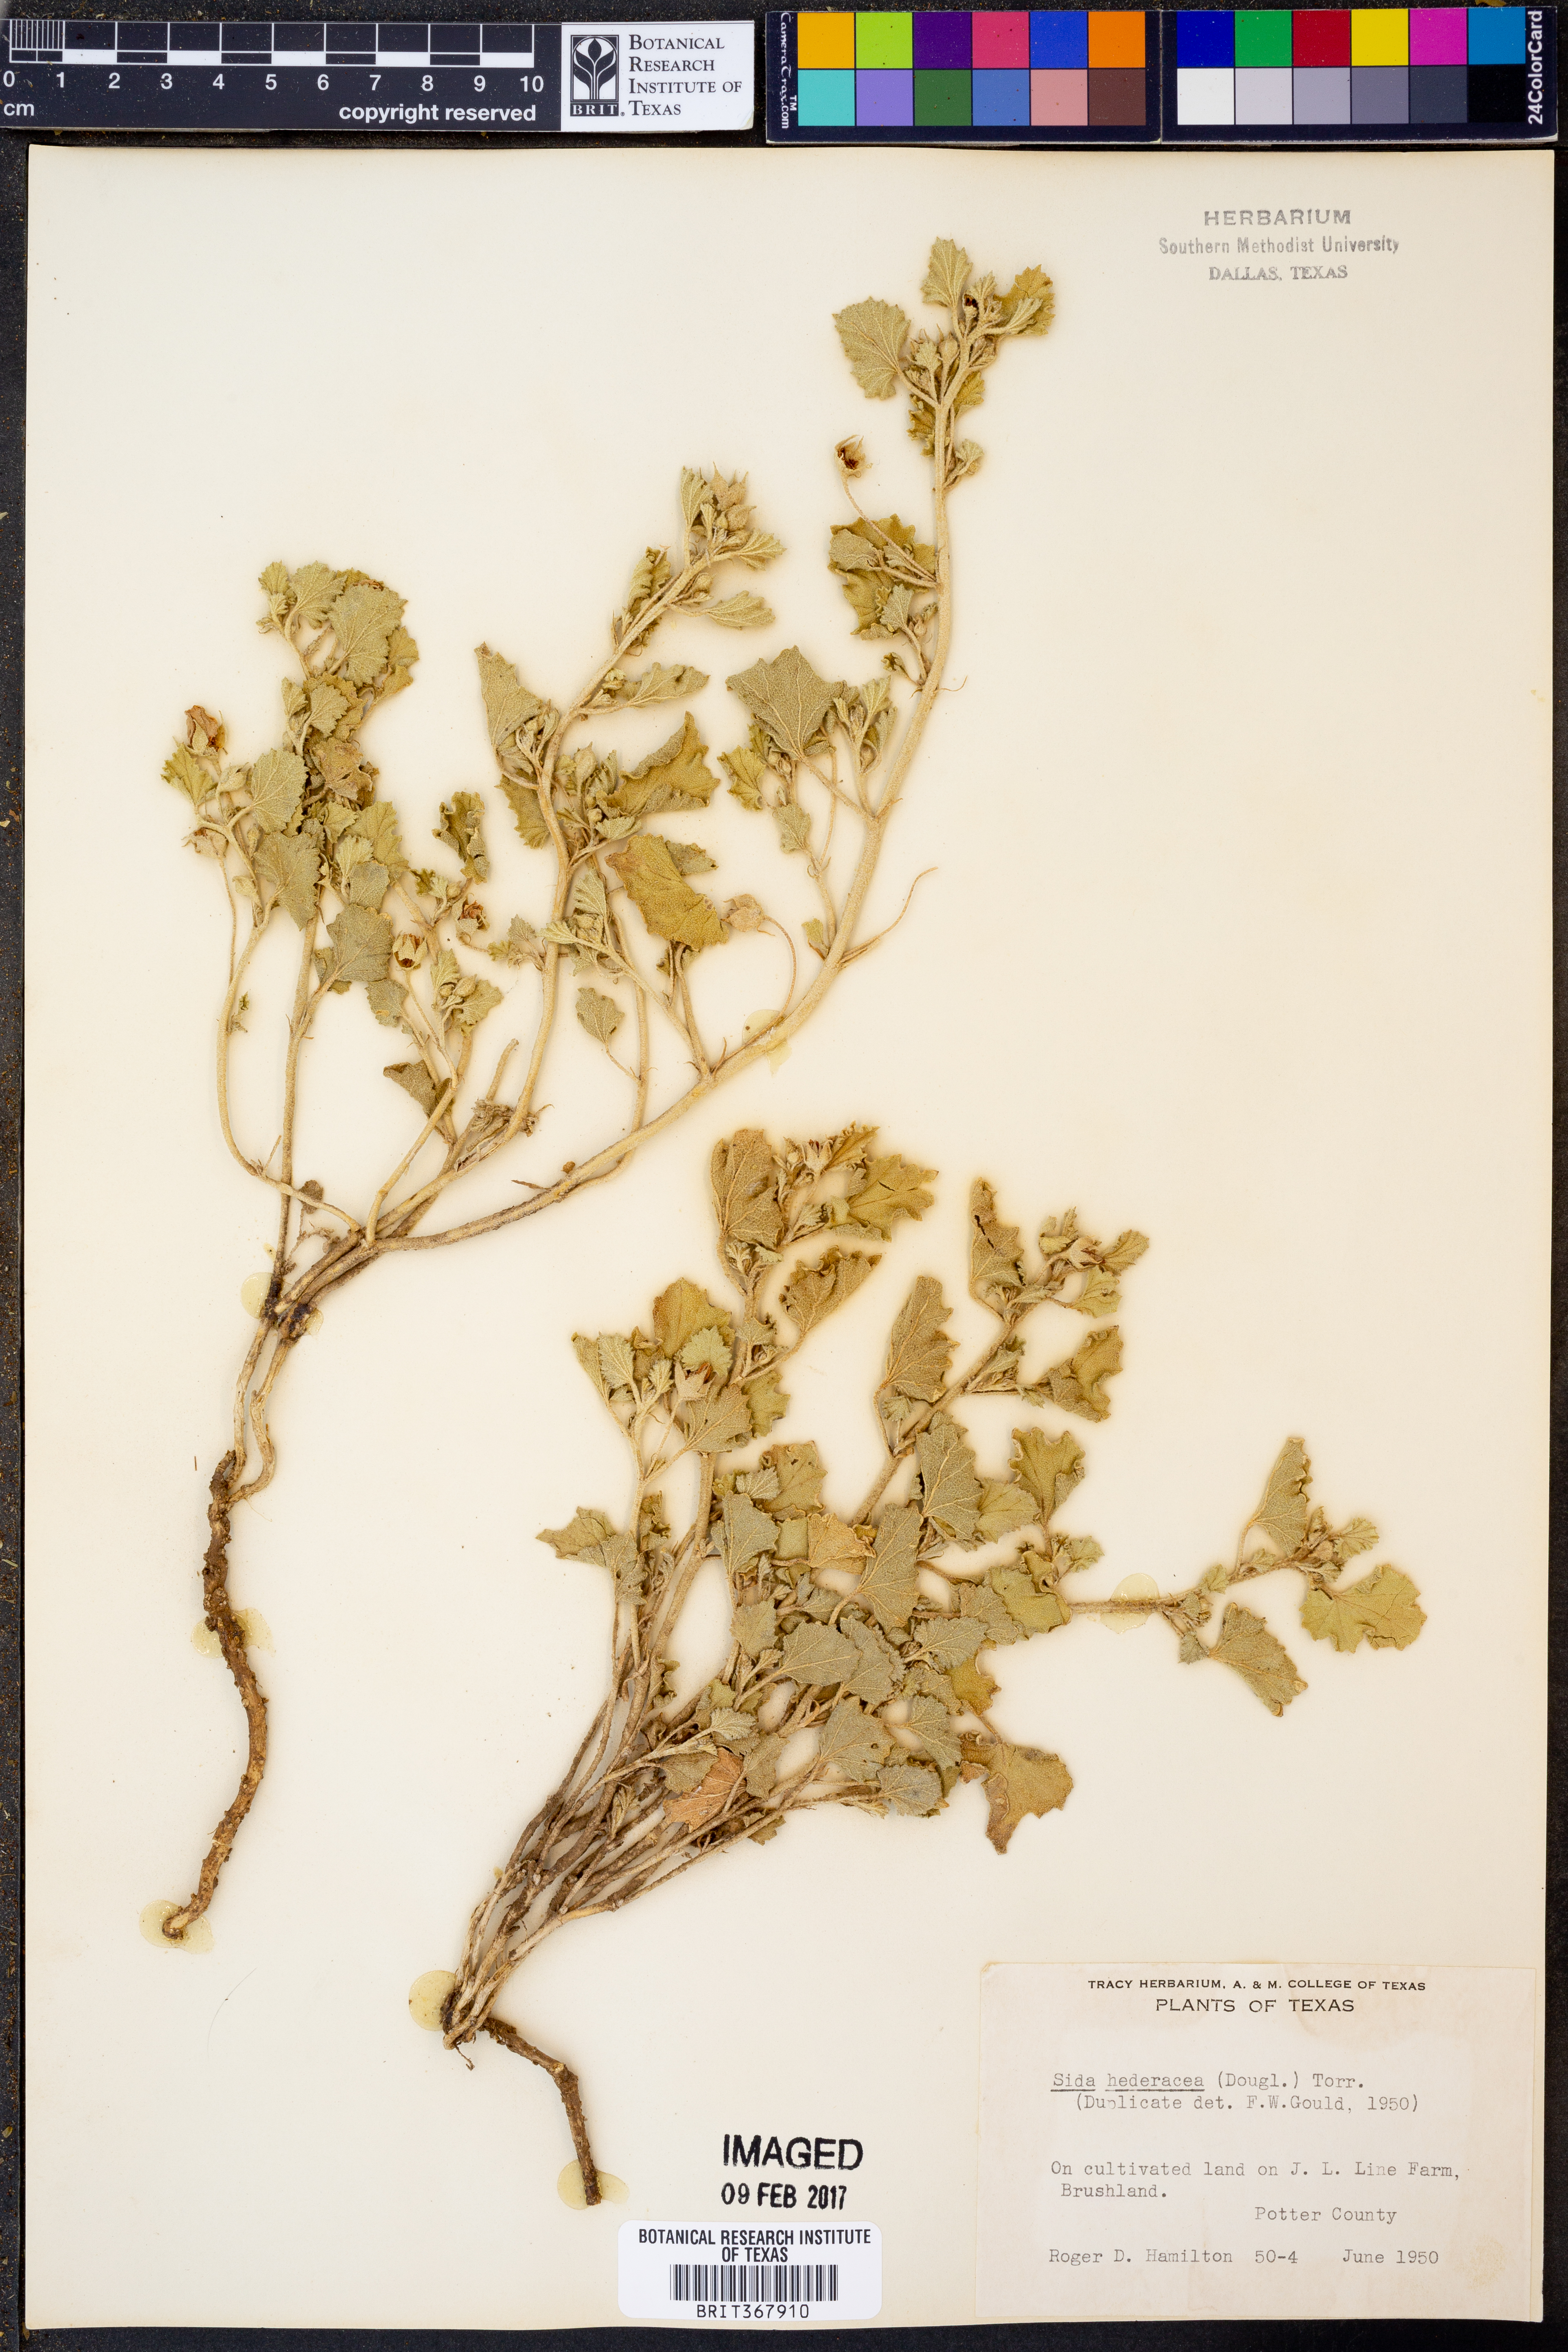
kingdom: Plantae
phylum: Tracheophyta
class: Magnoliopsida
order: Malvales
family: Malvaceae
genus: Malvella
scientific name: Malvella leprosa
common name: Alkali-mallow
